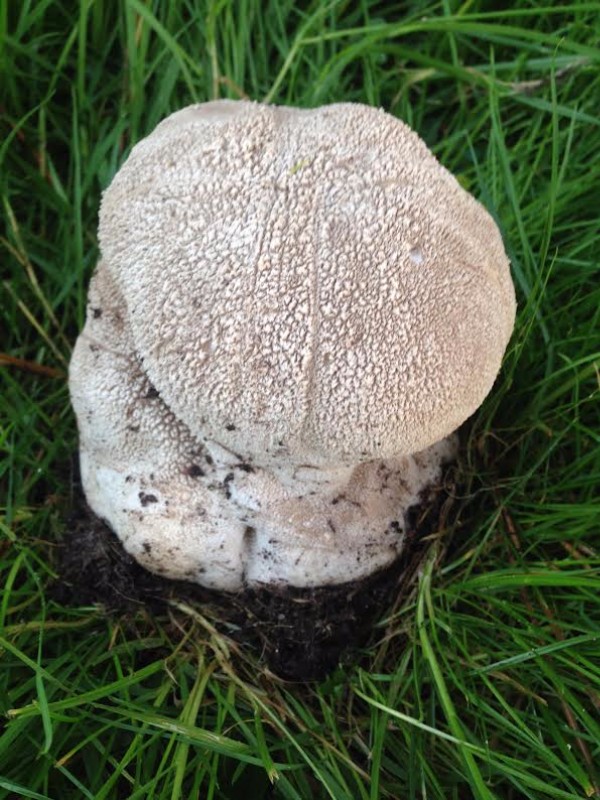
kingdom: Fungi
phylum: Basidiomycota
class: Agaricomycetes
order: Agaricales
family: Lycoperdaceae
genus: Bovistella
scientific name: Bovistella utriformis
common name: skællet støvbold
